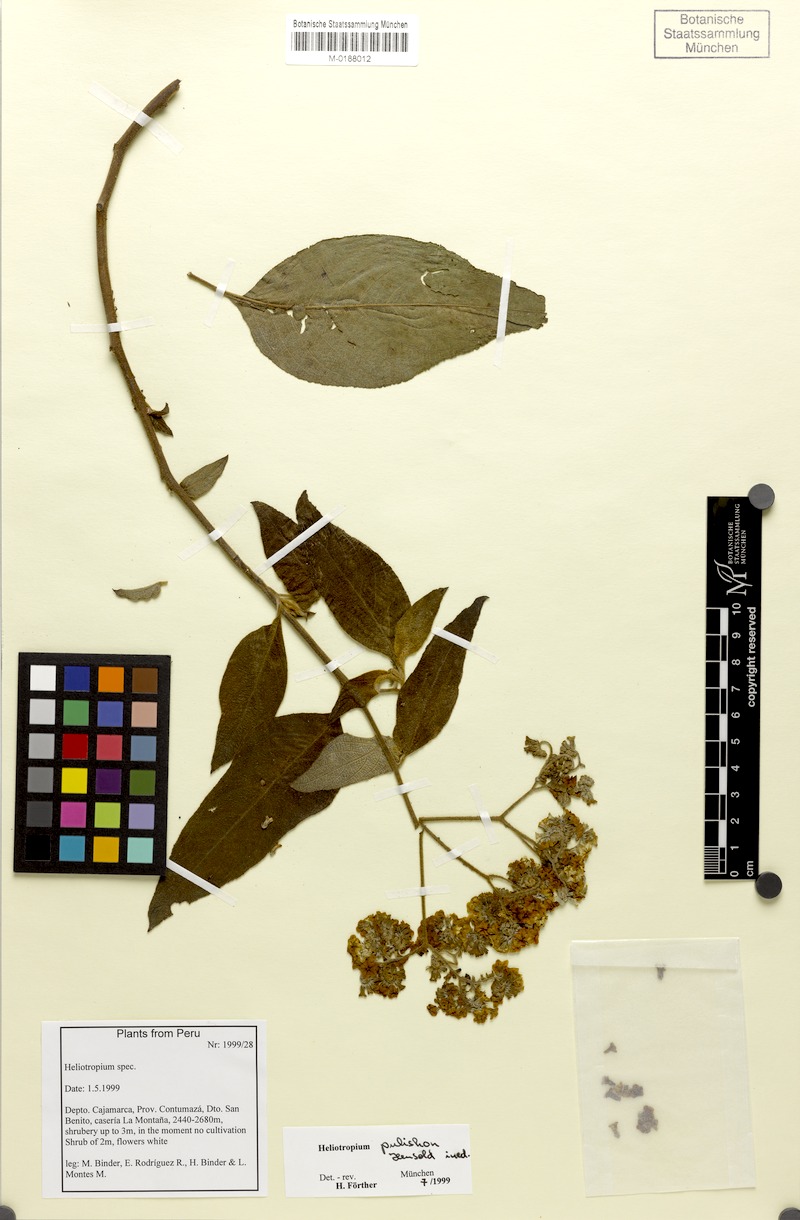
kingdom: Plantae
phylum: Tracheophyta
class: Magnoliopsida
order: Boraginales
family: Heliotropiaceae
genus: Heliotropium
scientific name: Heliotropium
